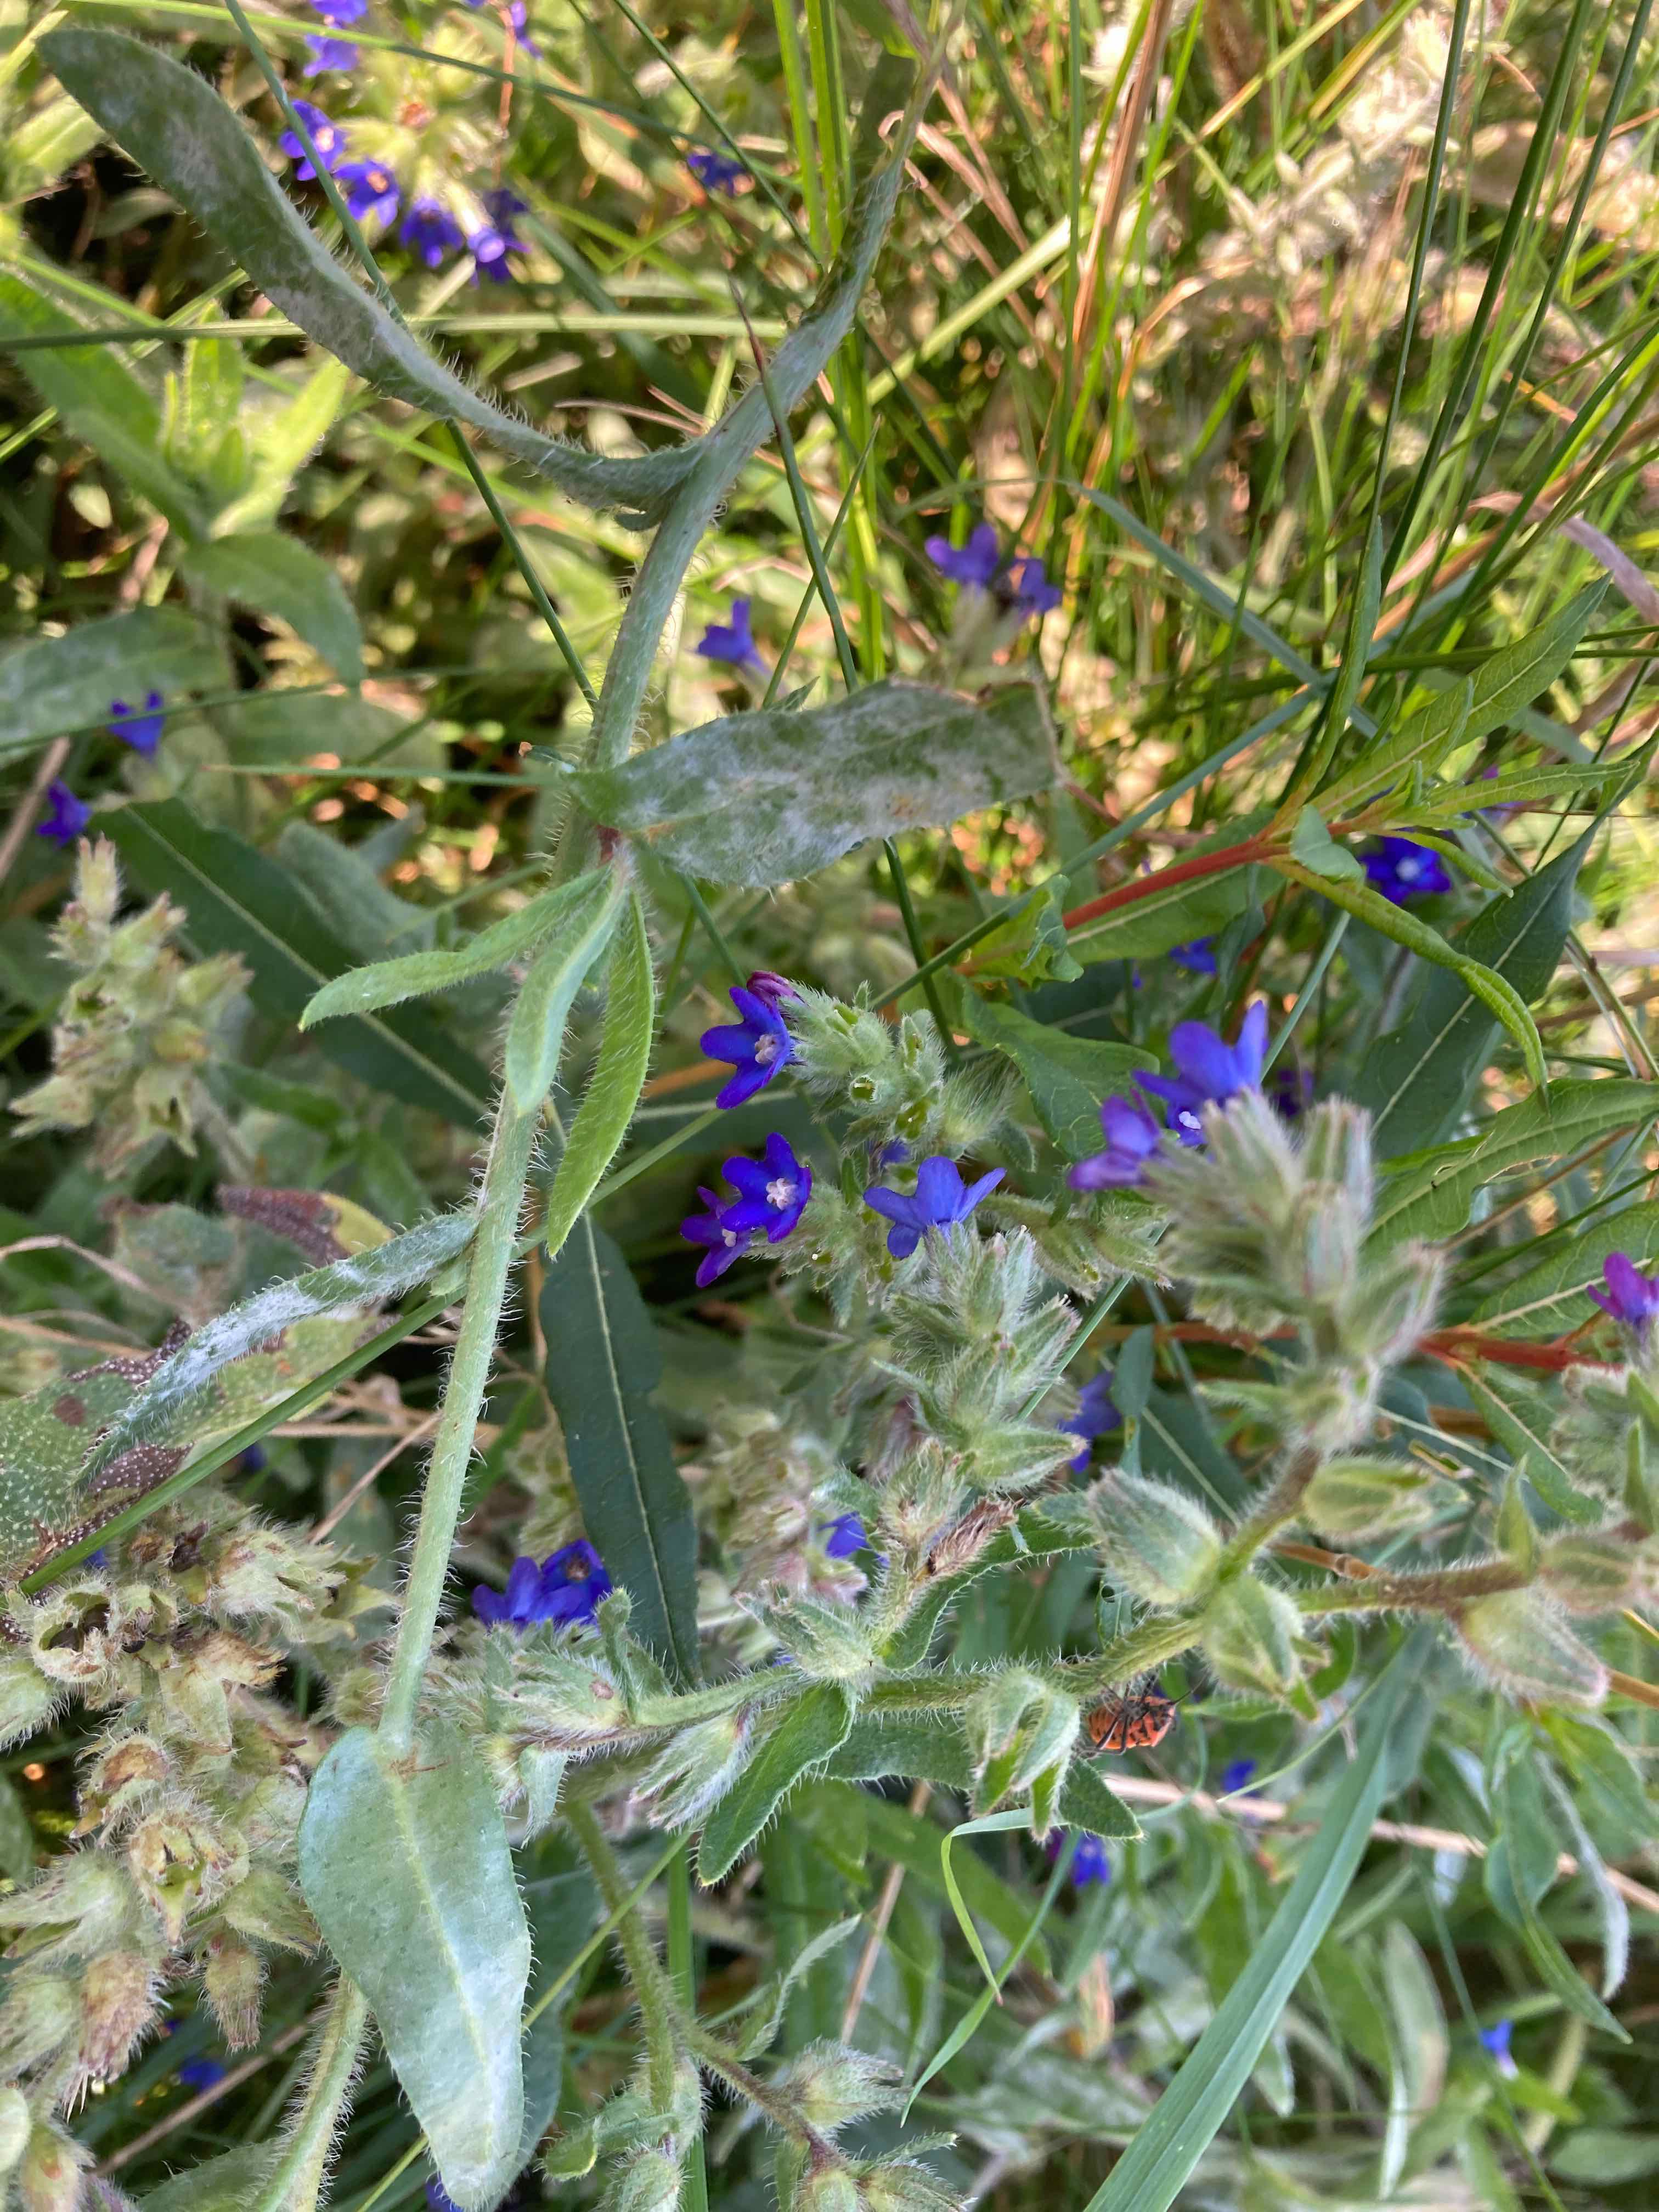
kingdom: Fungi
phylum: Ascomycota
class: Leotiomycetes
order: Helotiales
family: Erysiphaceae
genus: Erysiphe
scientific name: Erysiphe
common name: meldug
